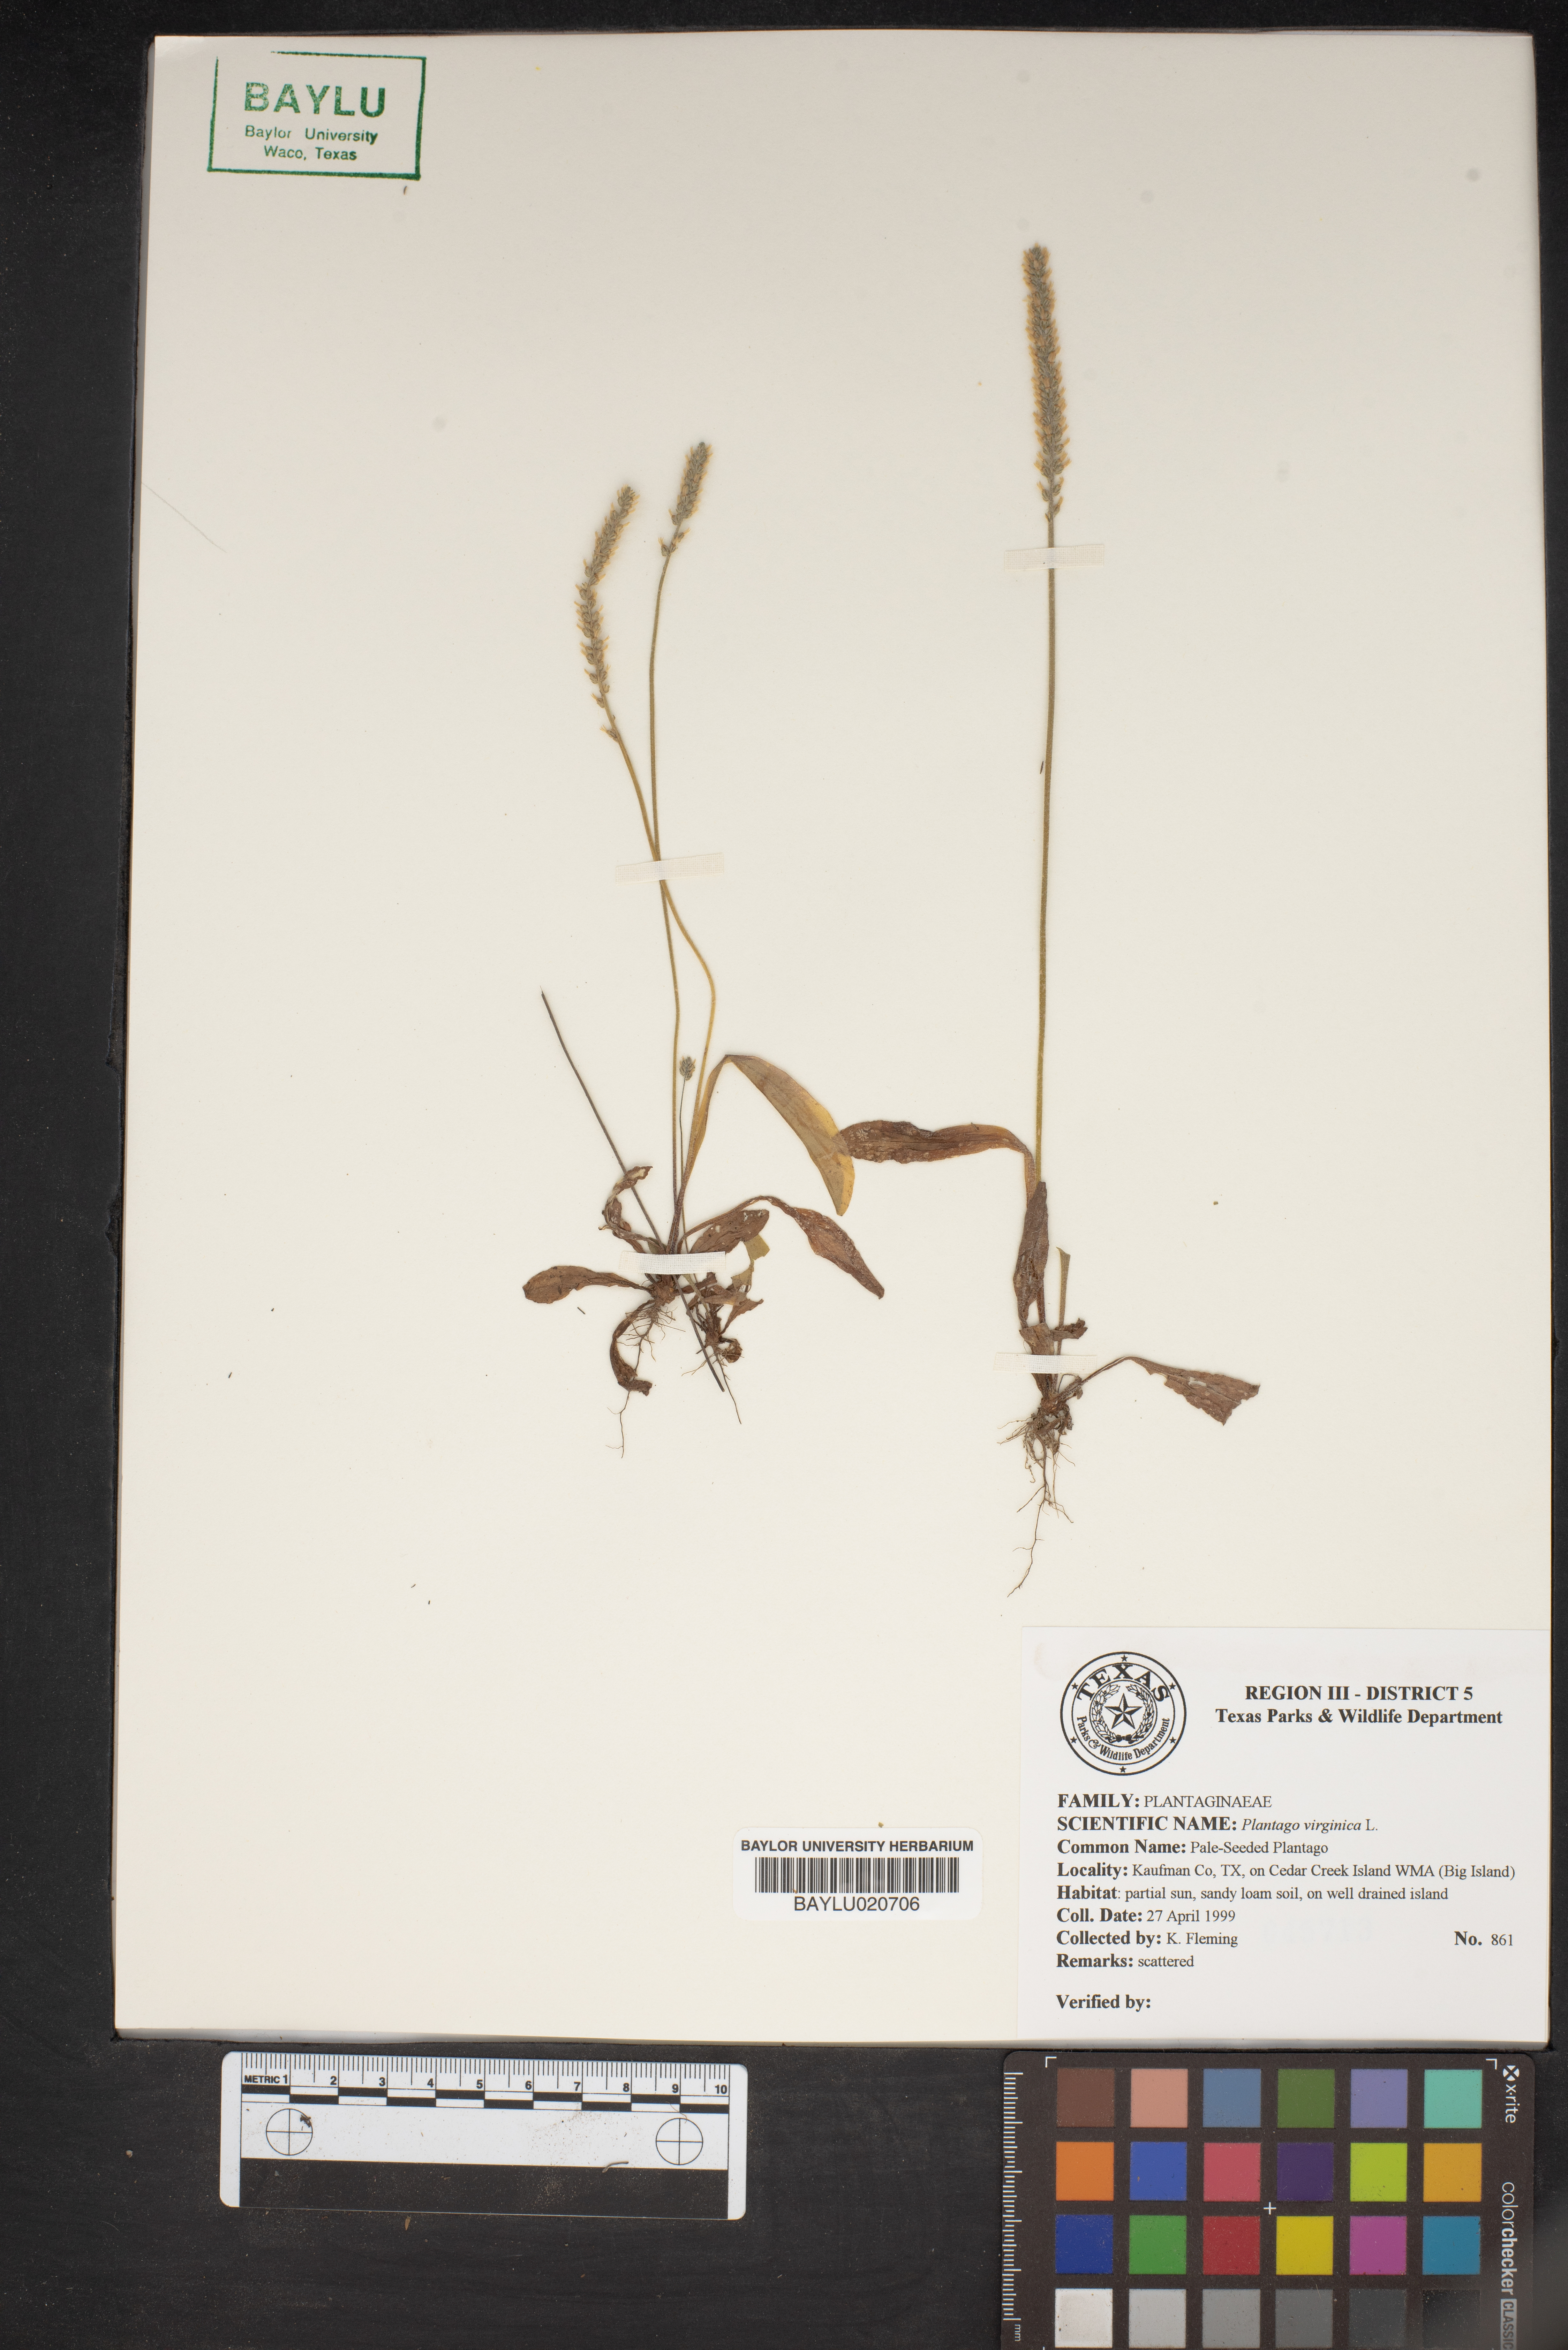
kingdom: Plantae
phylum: Tracheophyta
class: Magnoliopsida
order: Lamiales
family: Plantaginaceae
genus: Plantago
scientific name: Plantago virginica
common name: Hoary plantain
